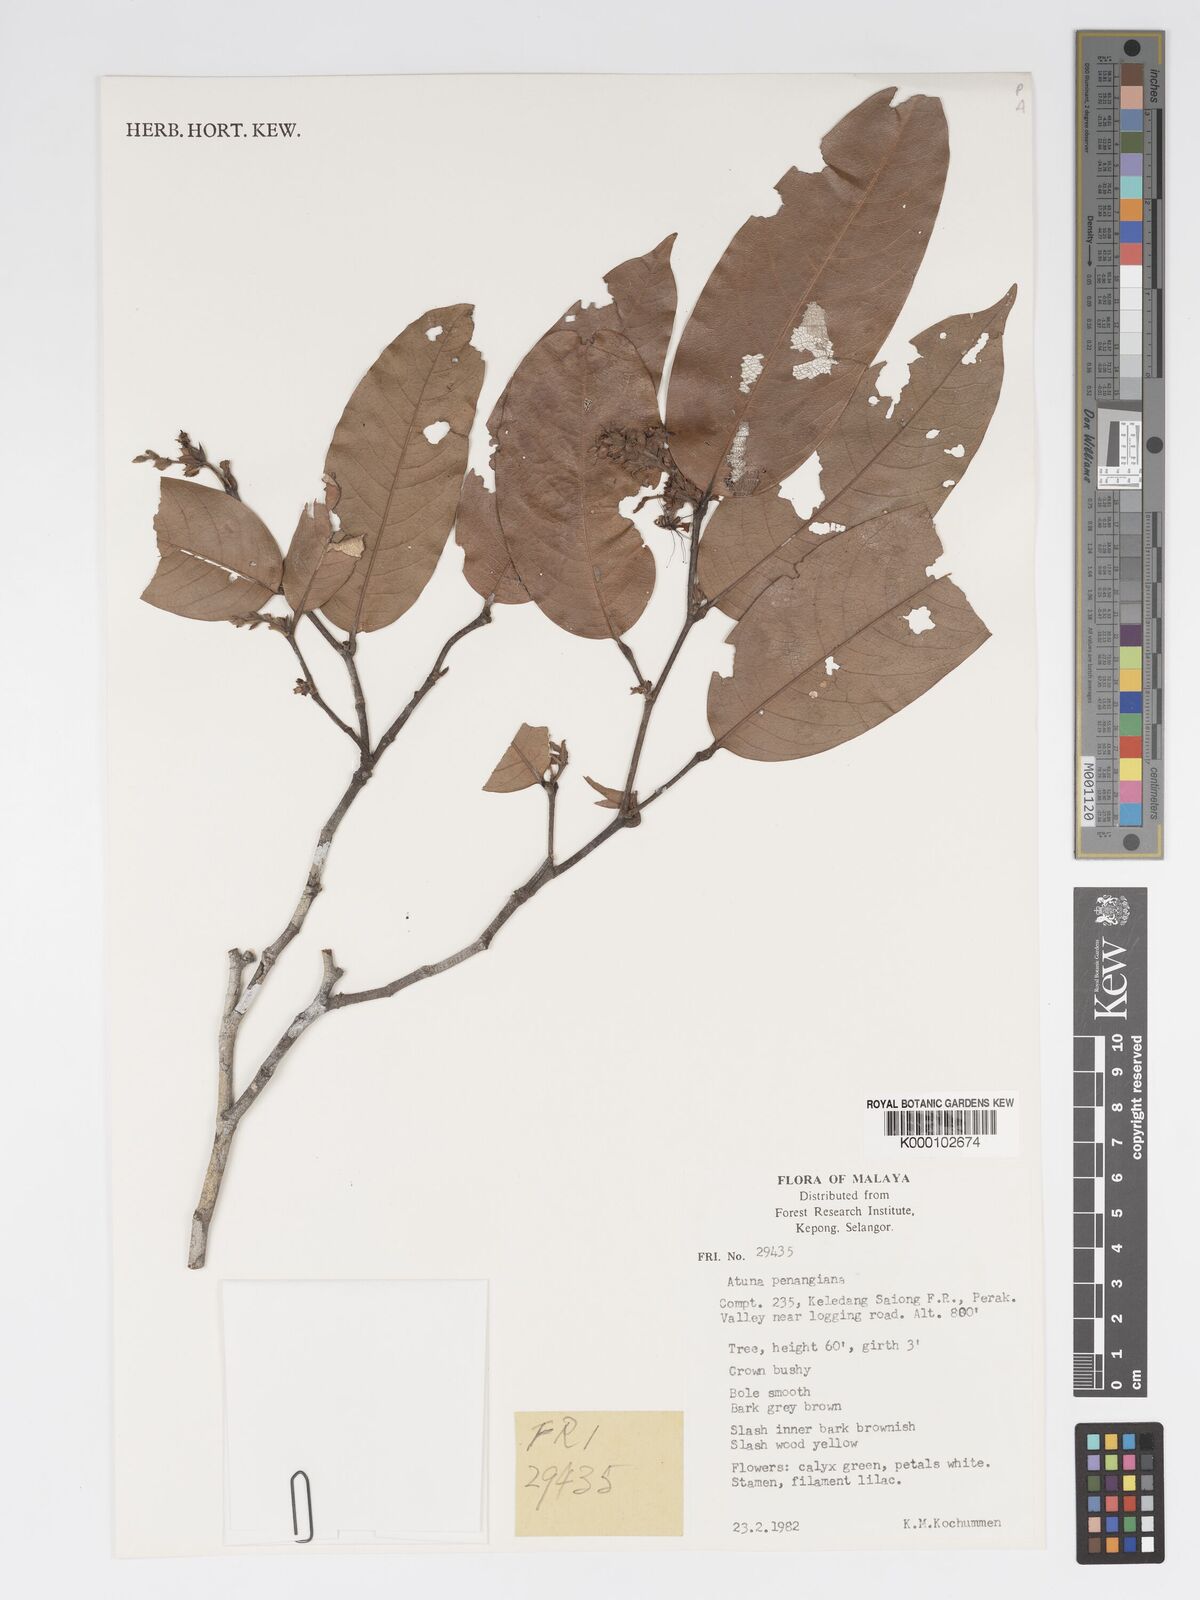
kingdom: Plantae
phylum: Tracheophyta
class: Magnoliopsida
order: Malpighiales
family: Chrysobalanaceae
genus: Atuna
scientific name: Atuna penangiana
